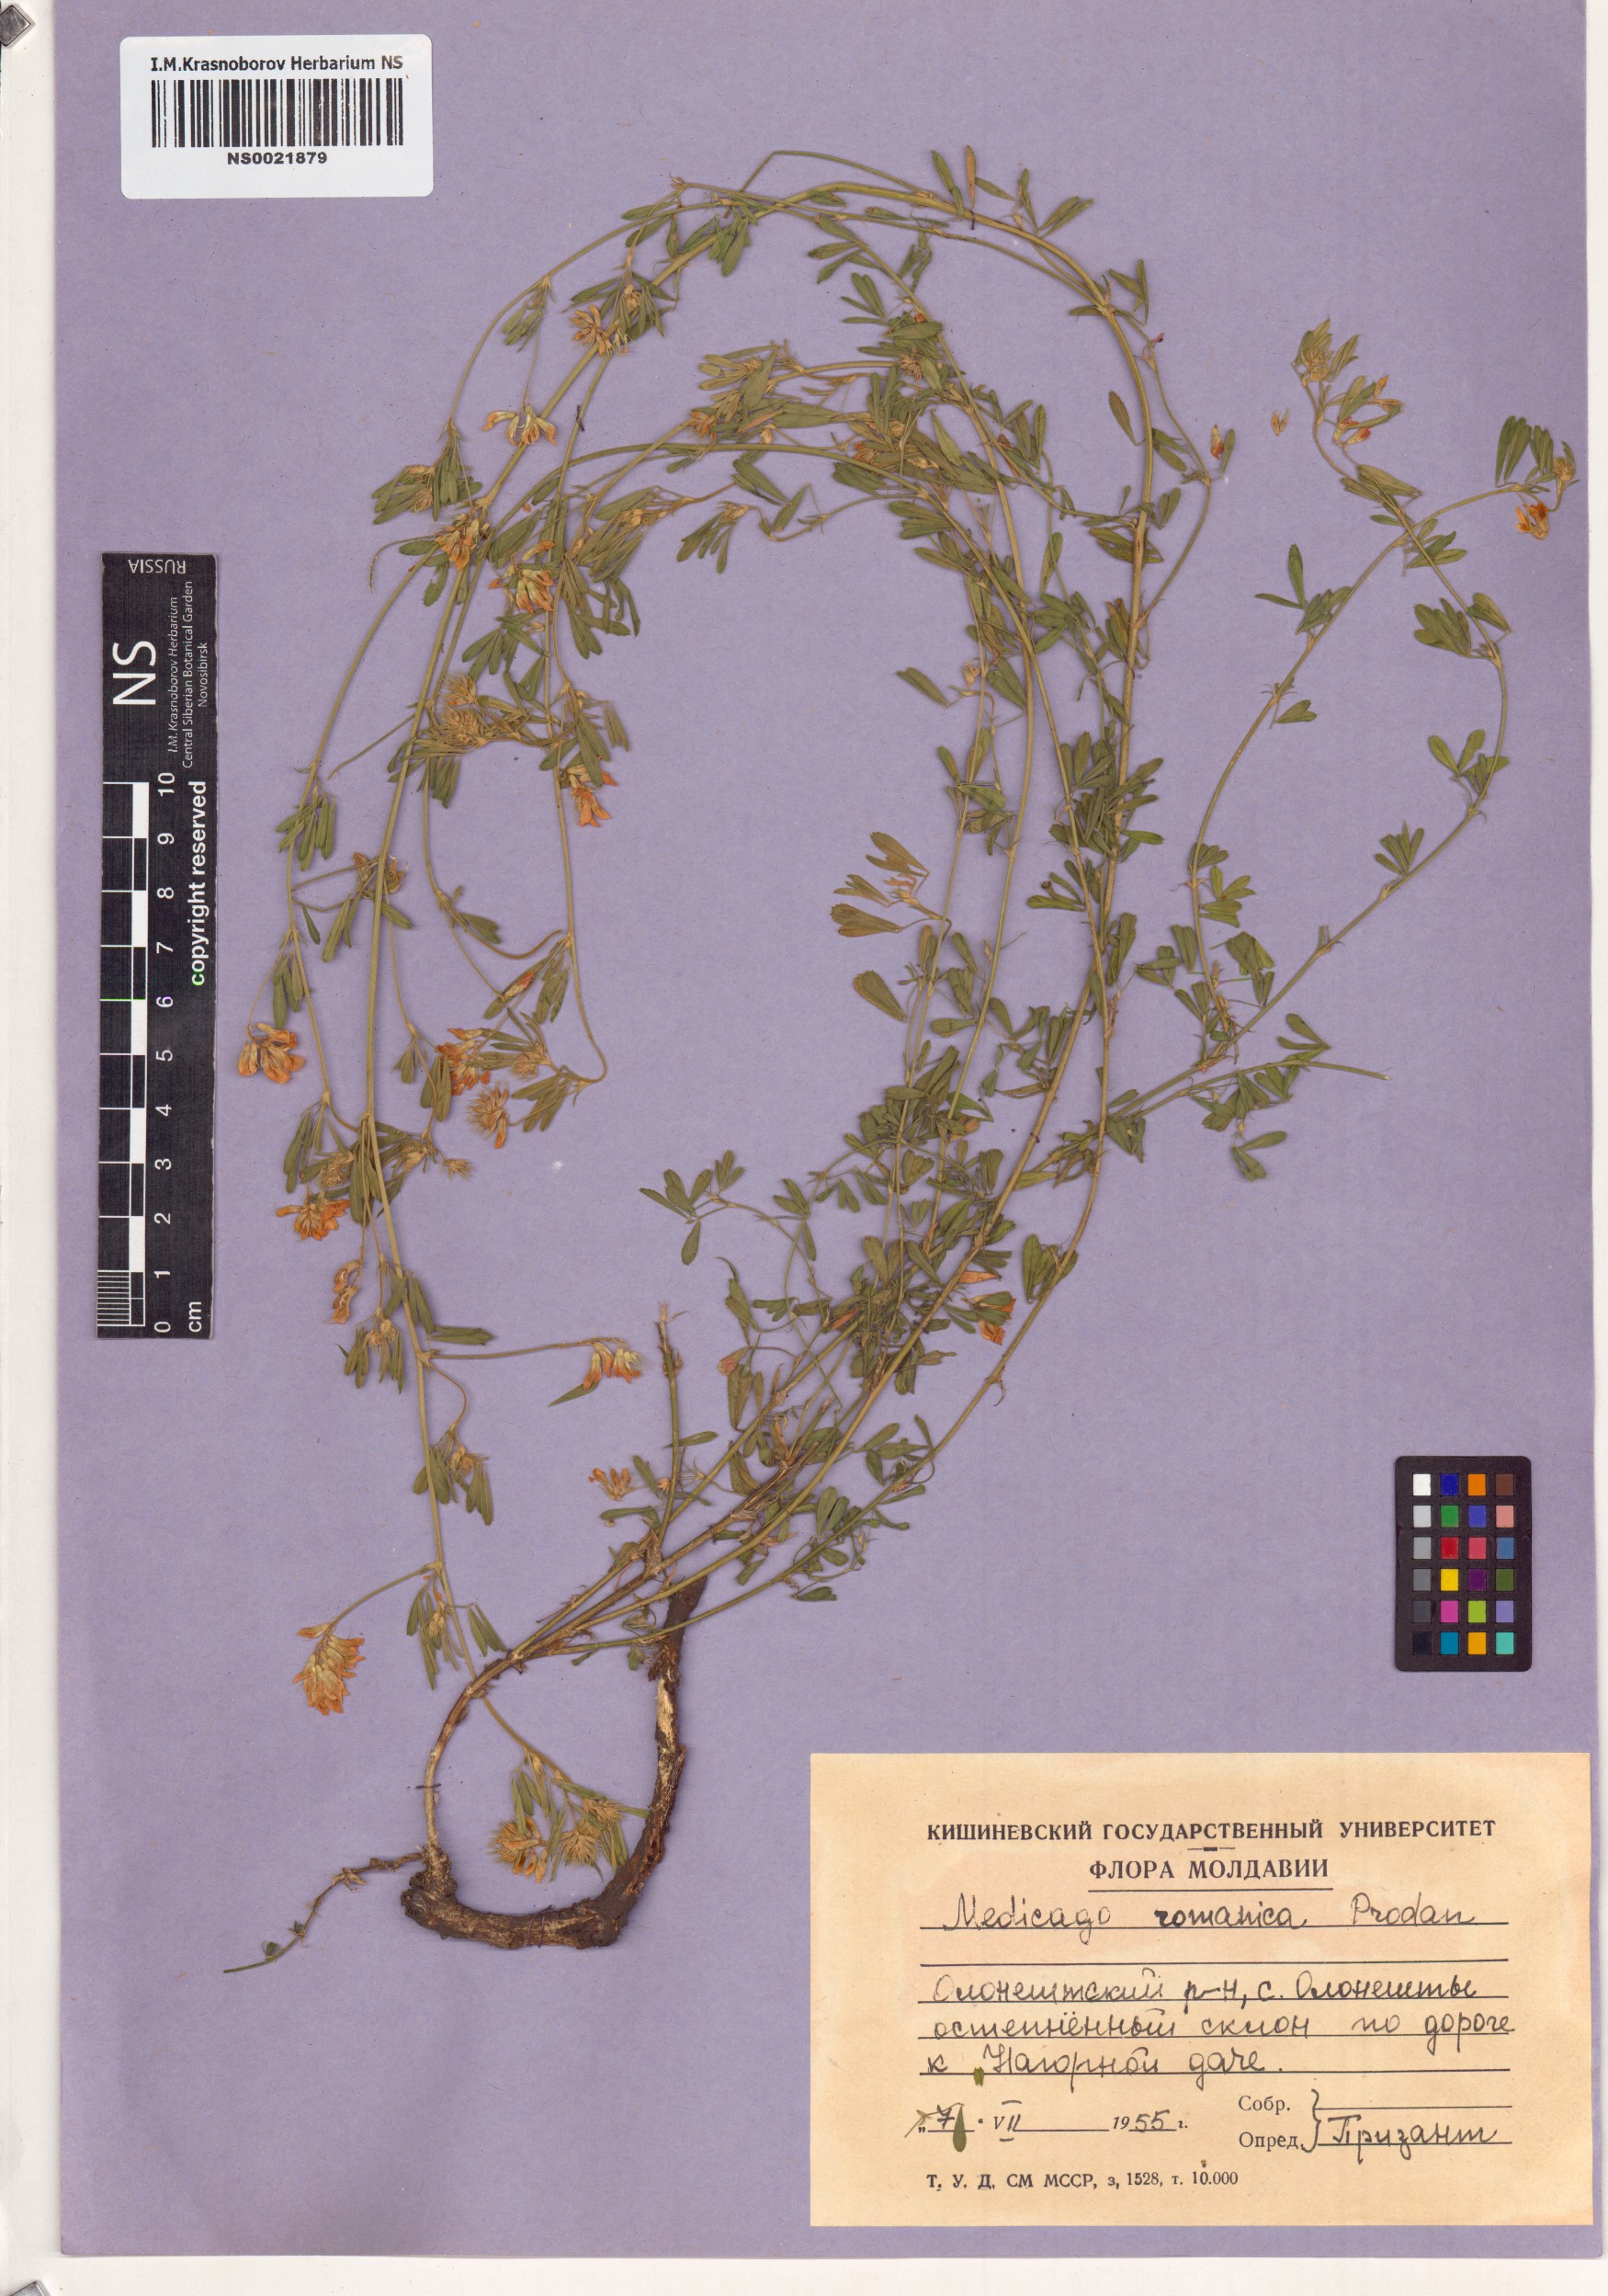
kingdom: Plantae
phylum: Tracheophyta
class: Magnoliopsida
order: Fabales
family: Fabaceae
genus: Medicago
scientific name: Medicago falcata
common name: Sickle medick
